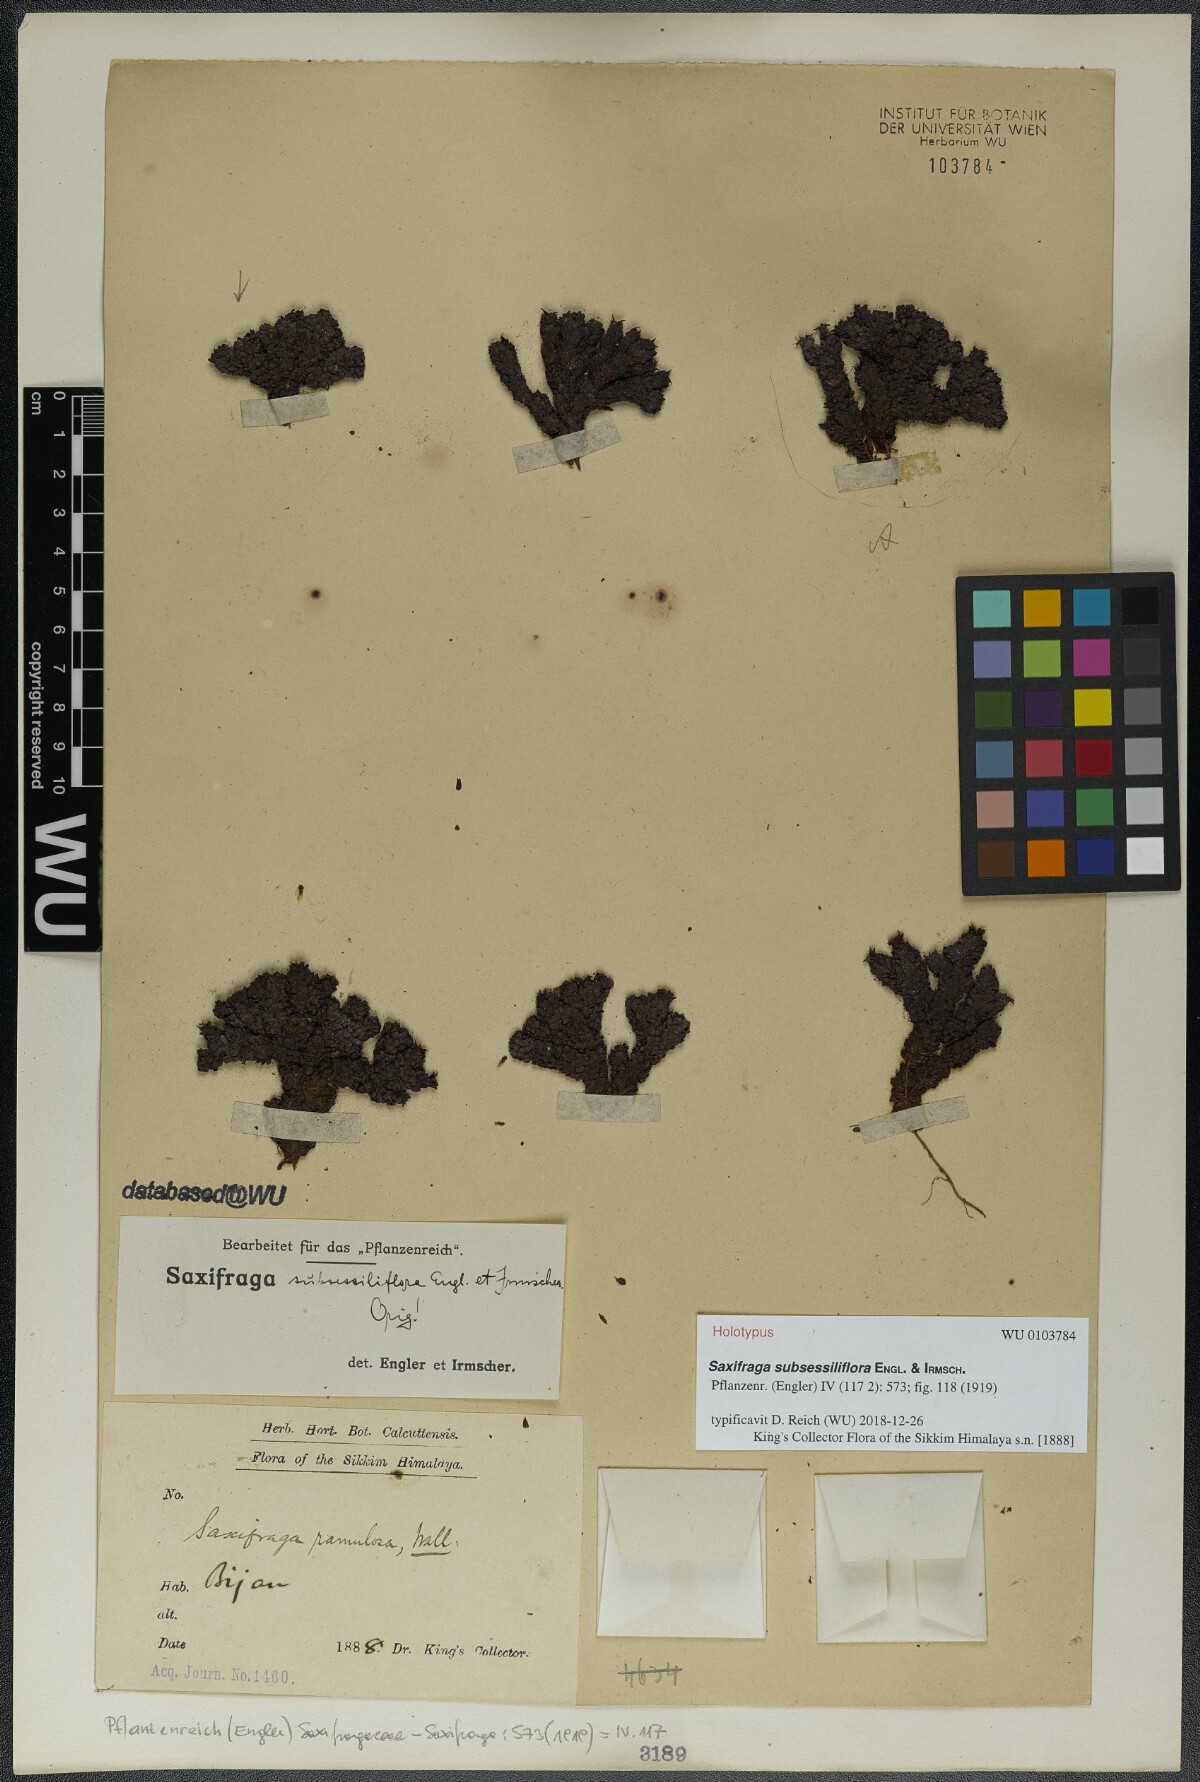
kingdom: Plantae
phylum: Tracheophyta
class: Magnoliopsida
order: Saxifragales
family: Saxifragaceae
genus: Saxifraga
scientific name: Saxifraga subsessiliflora
